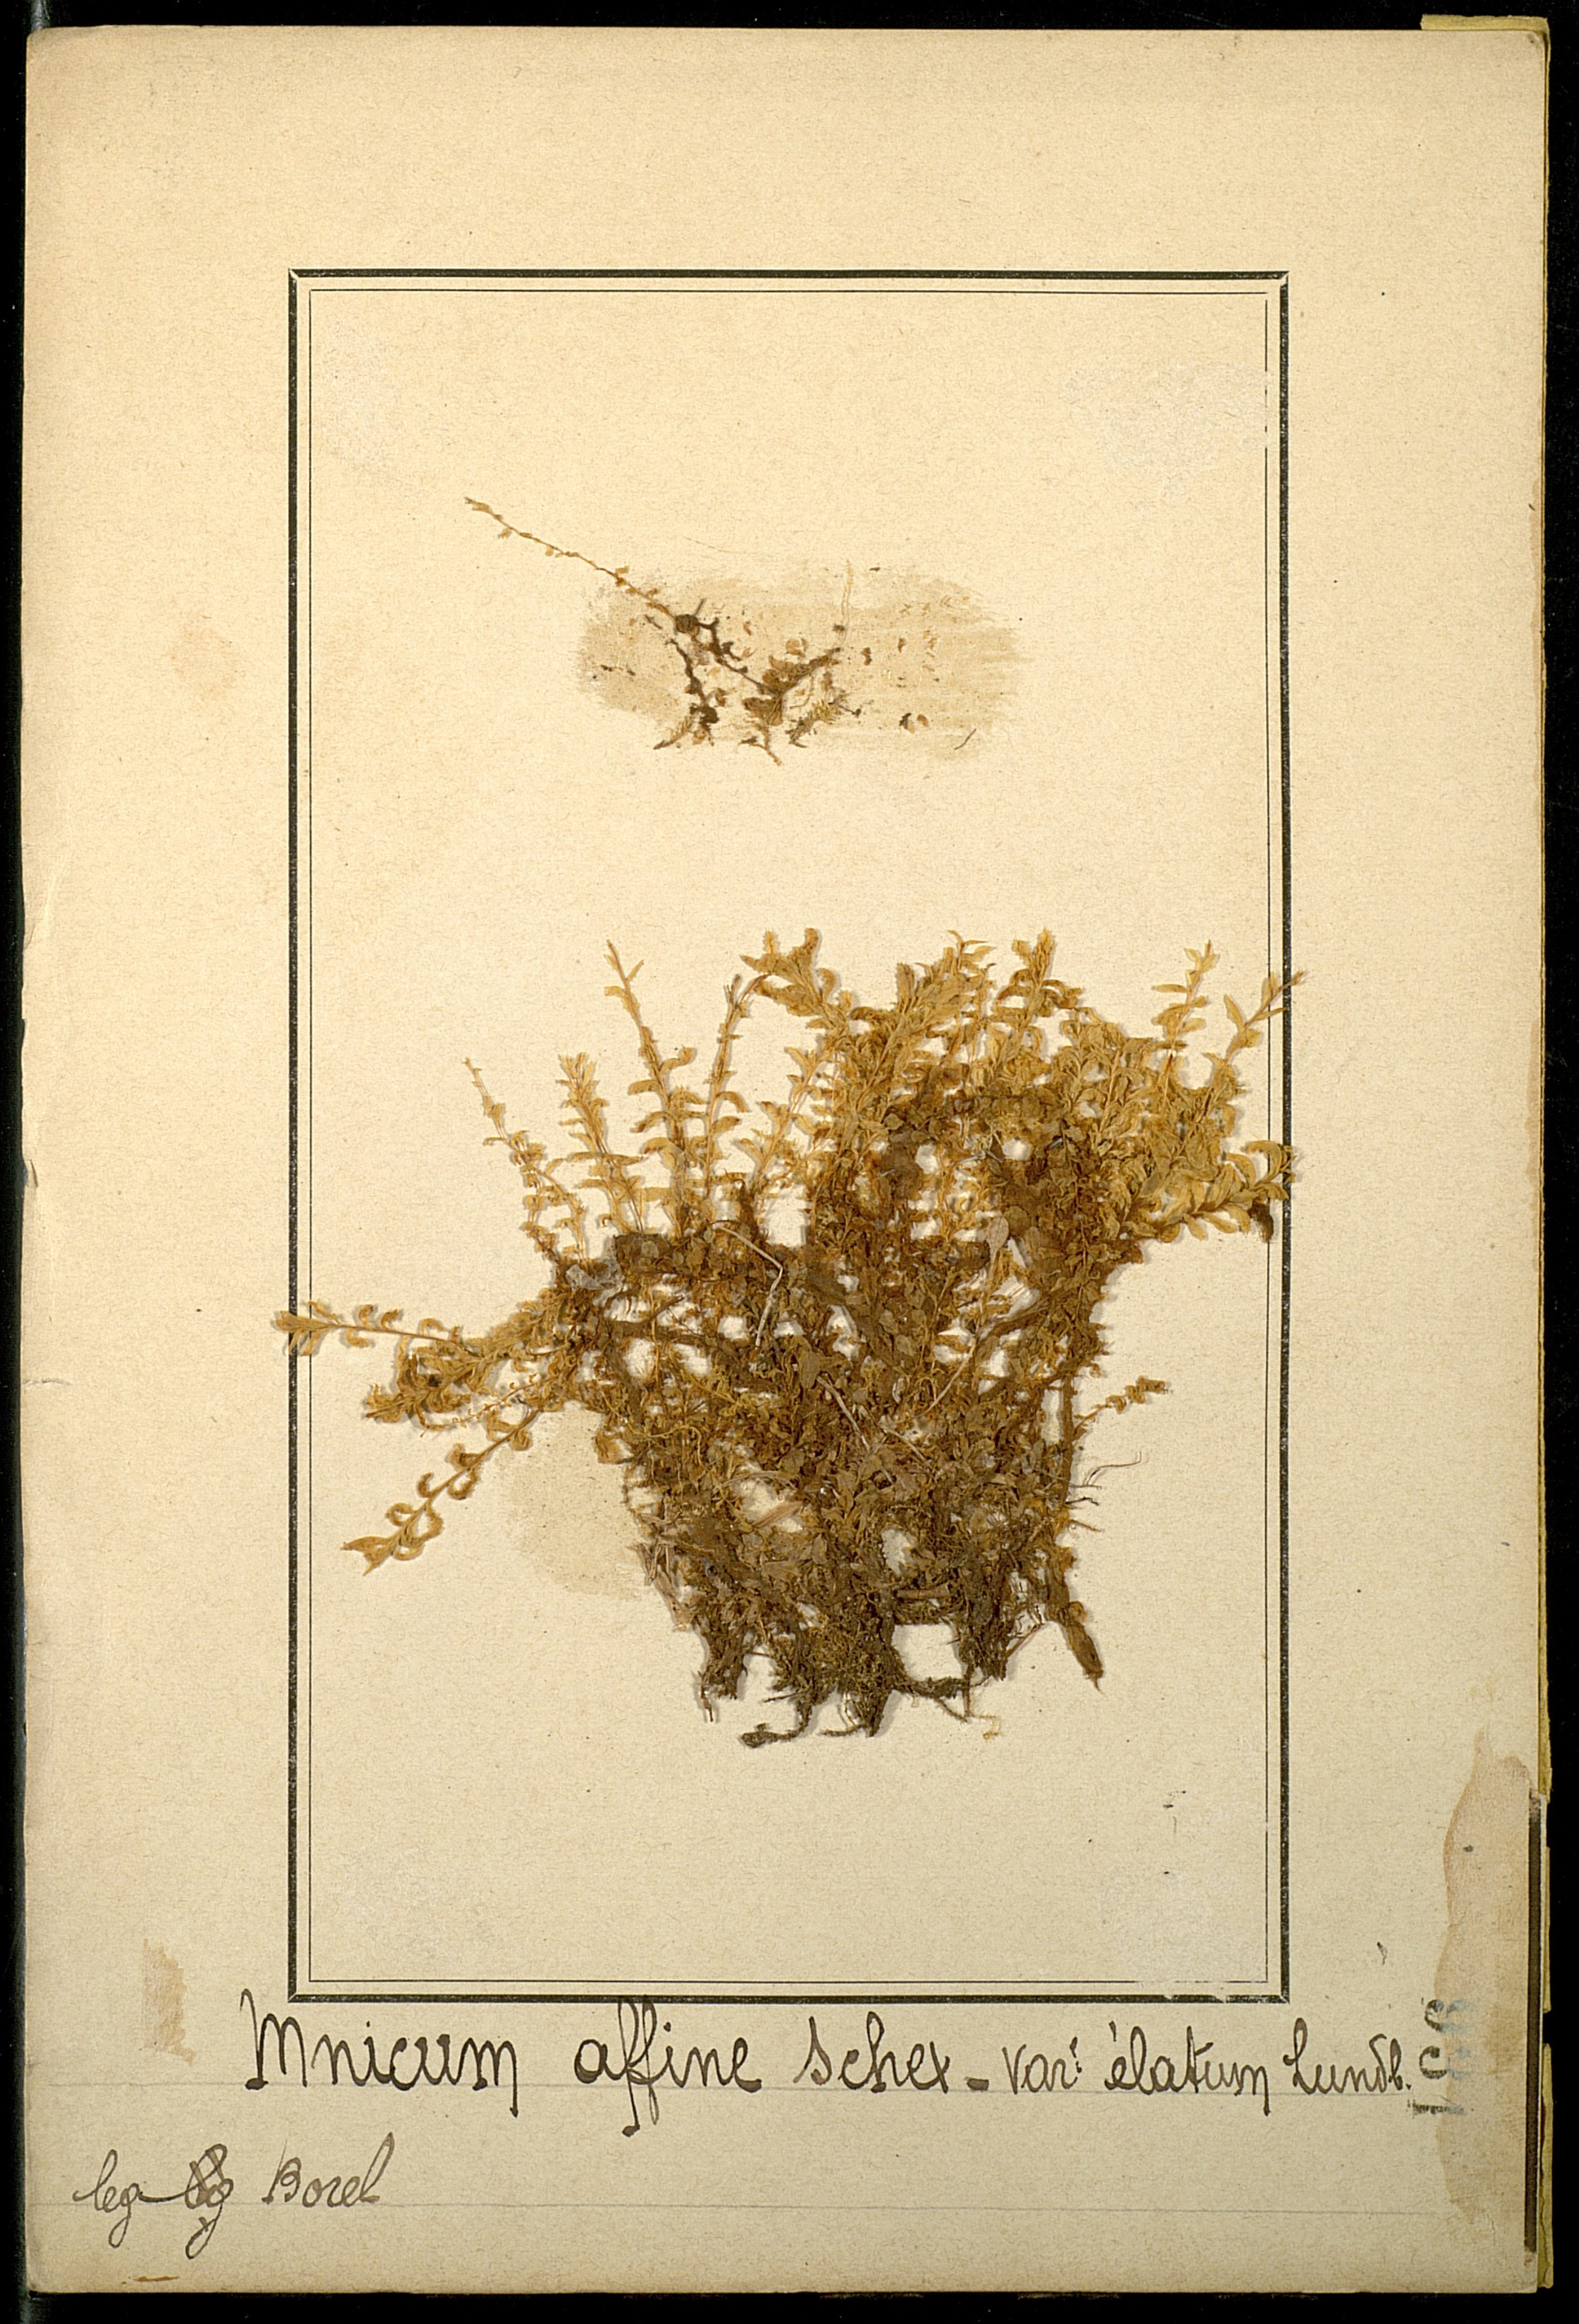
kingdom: Plantae
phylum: Bryophyta
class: Bryopsida
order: Bryales
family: Mniaceae
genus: Plagiomnium
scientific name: Plagiomnium affine
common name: Many-fruited thyme-moss
